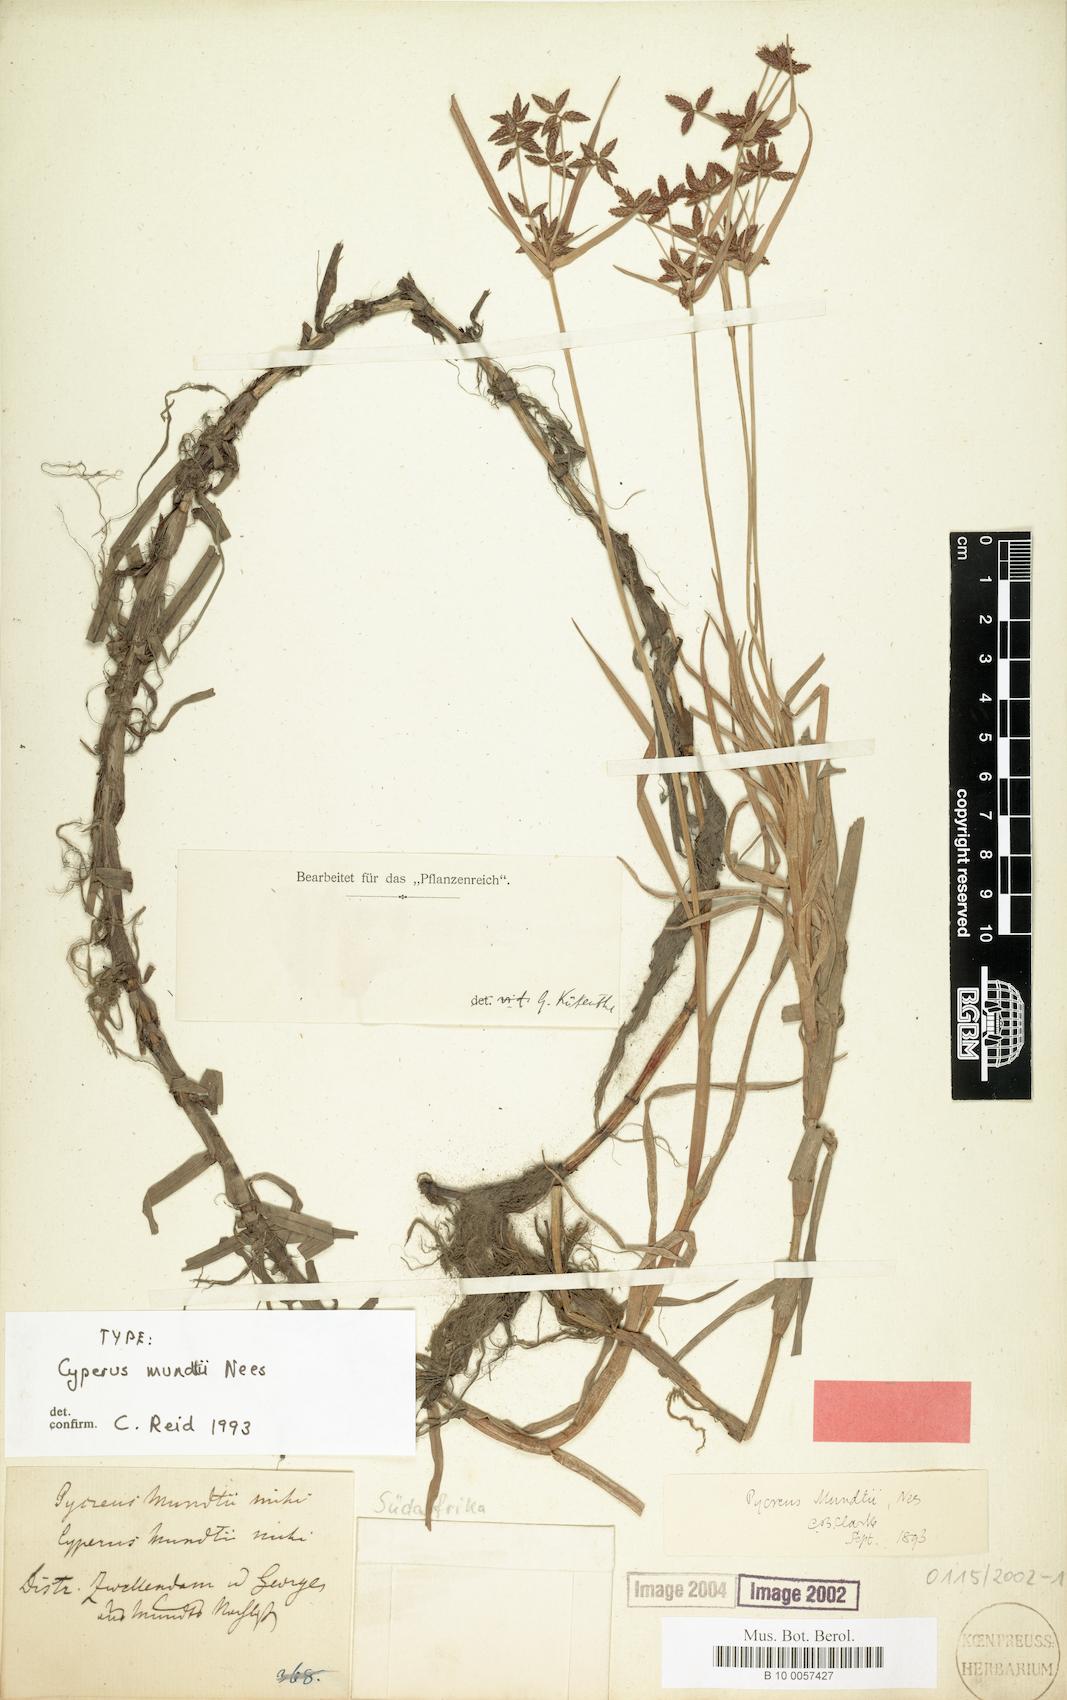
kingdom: Plantae
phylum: Tracheophyta
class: Liliopsida
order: Poales
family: Cyperaceae
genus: Cyperus
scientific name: Cyperus aromaticus
